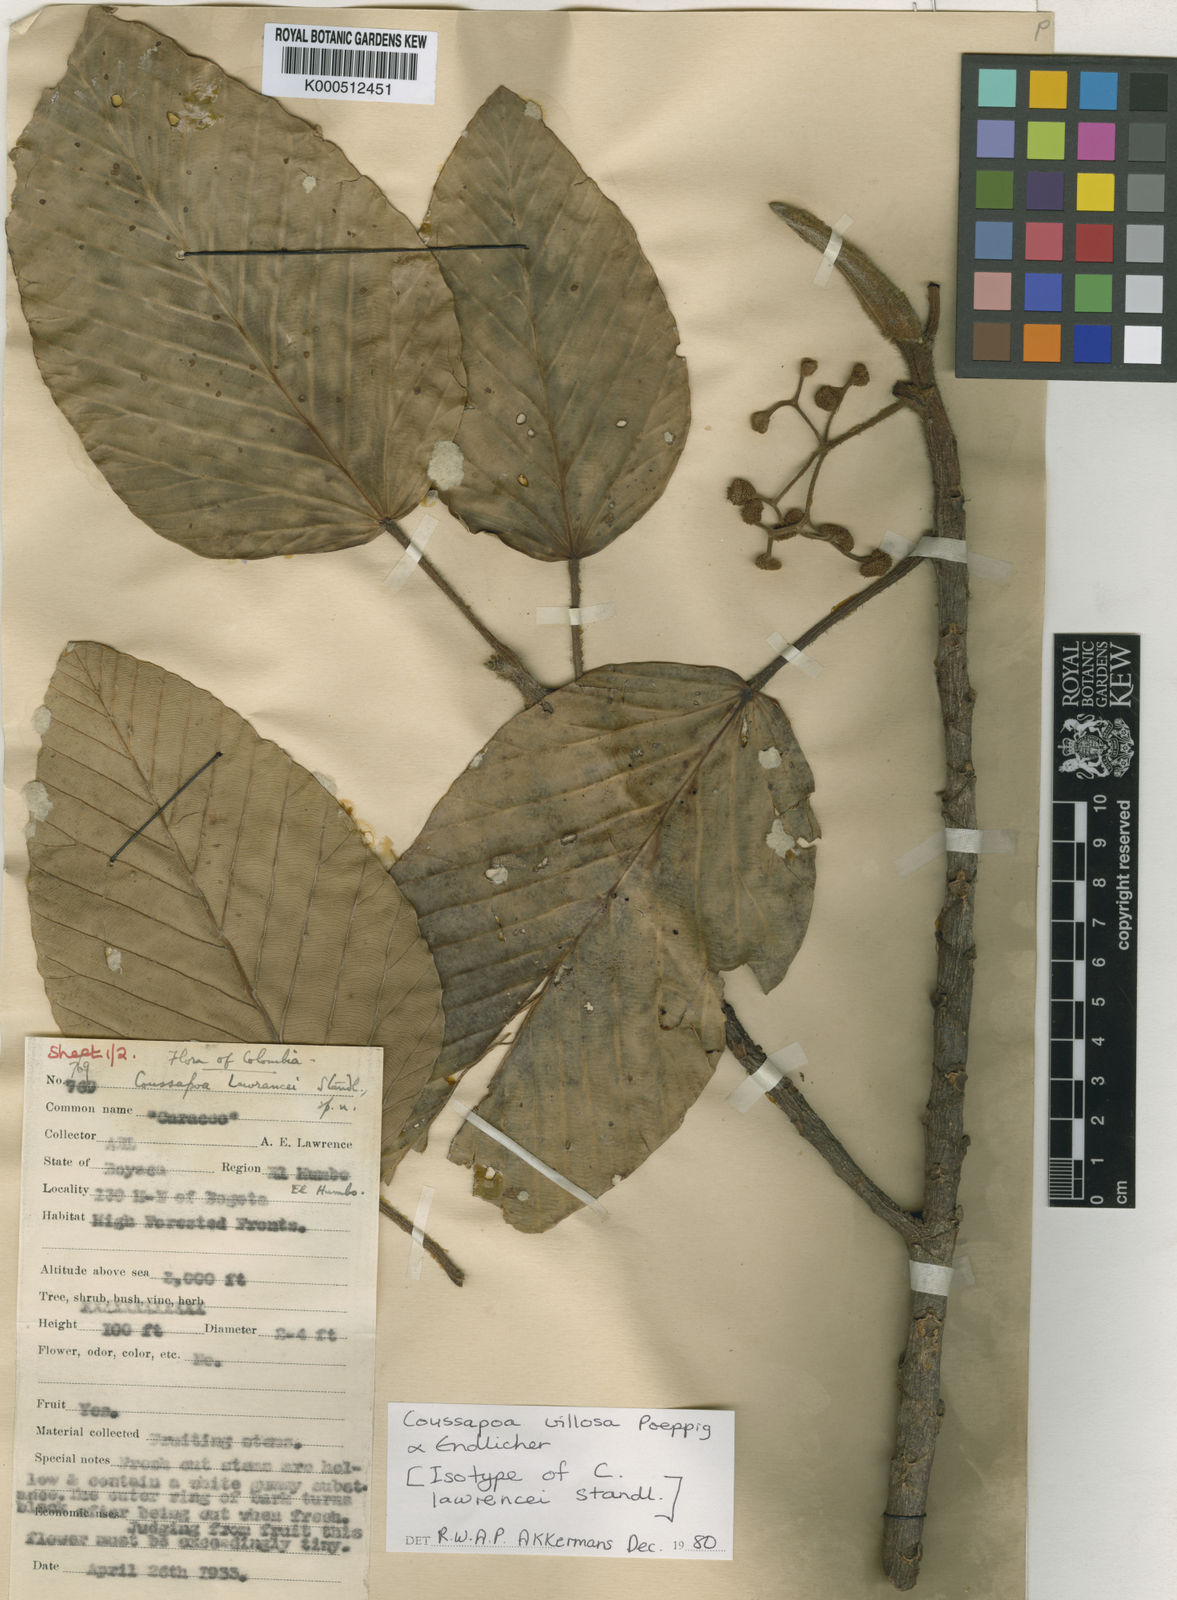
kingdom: Plantae
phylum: Tracheophyta
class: Magnoliopsida
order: Rosales
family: Urticaceae
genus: Coussapoa
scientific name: Coussapoa villosa
